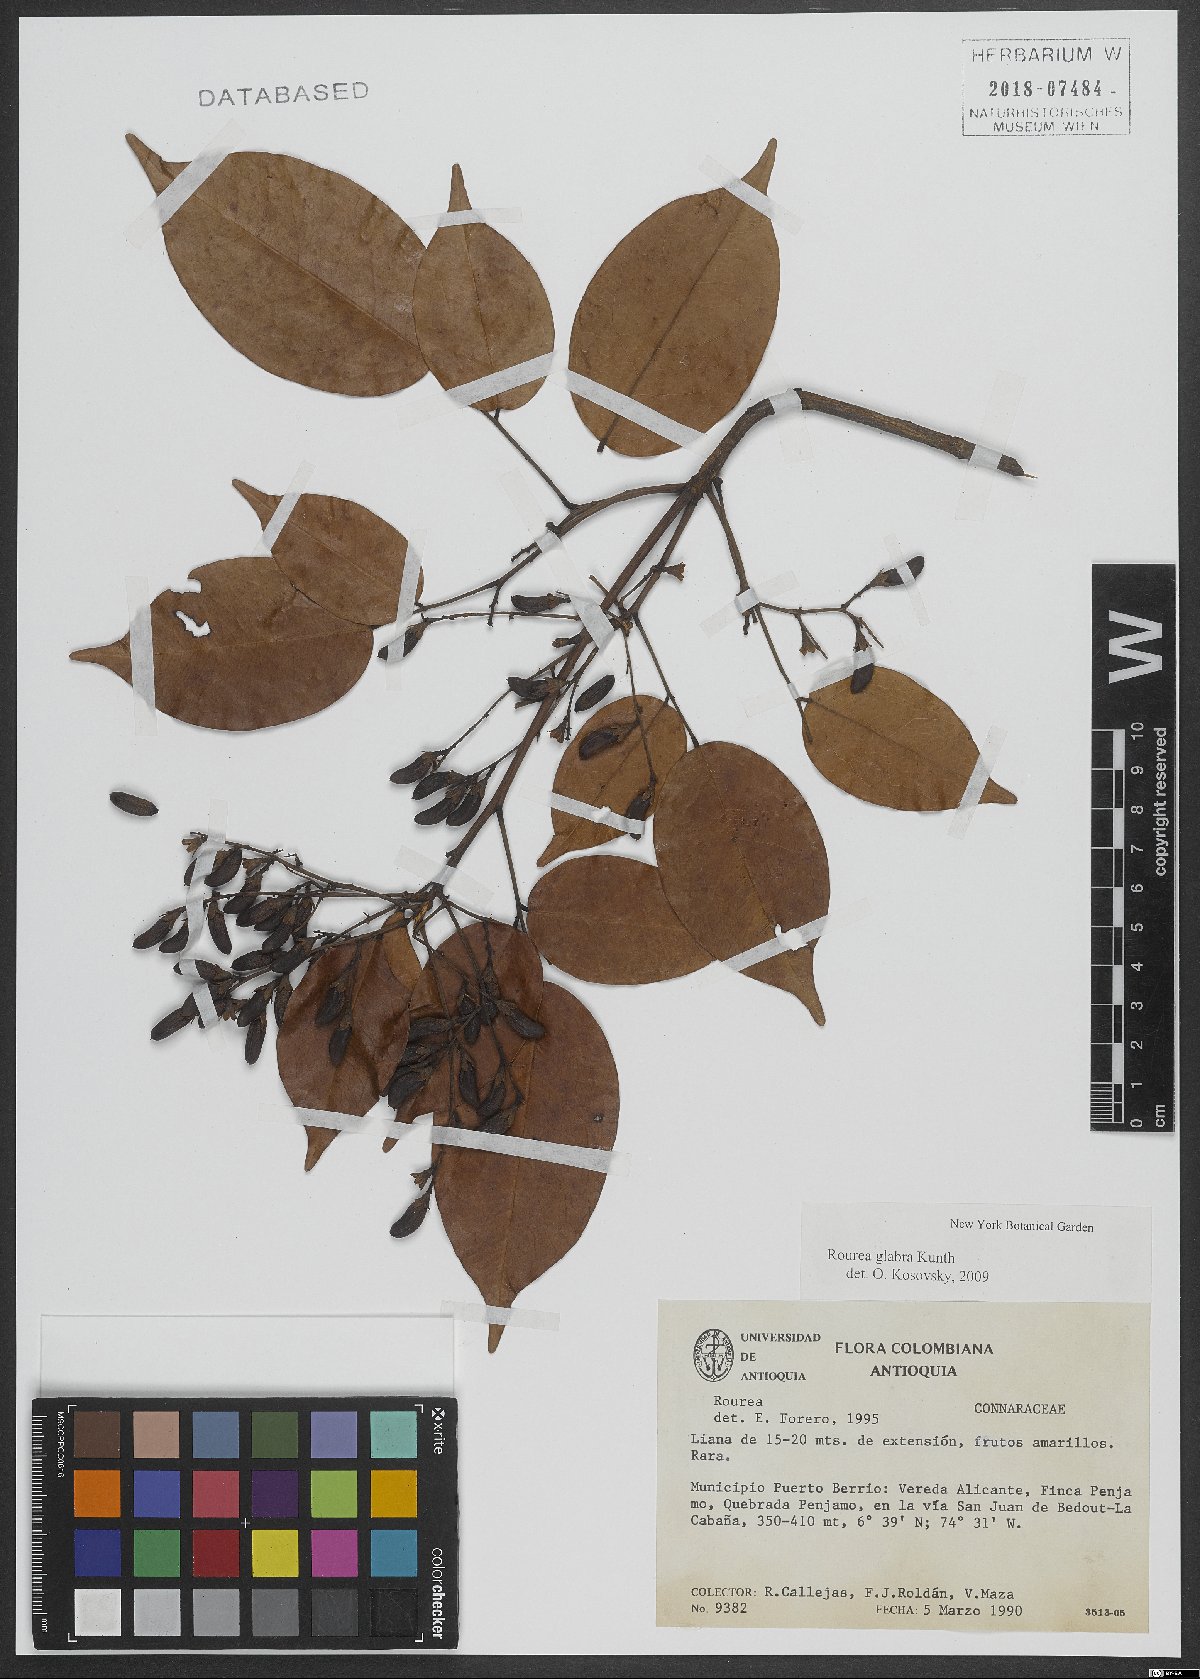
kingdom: Plantae
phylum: Tracheophyta
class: Magnoliopsida
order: Oxalidales
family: Connaraceae
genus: Rourea
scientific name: Rourea glabra
